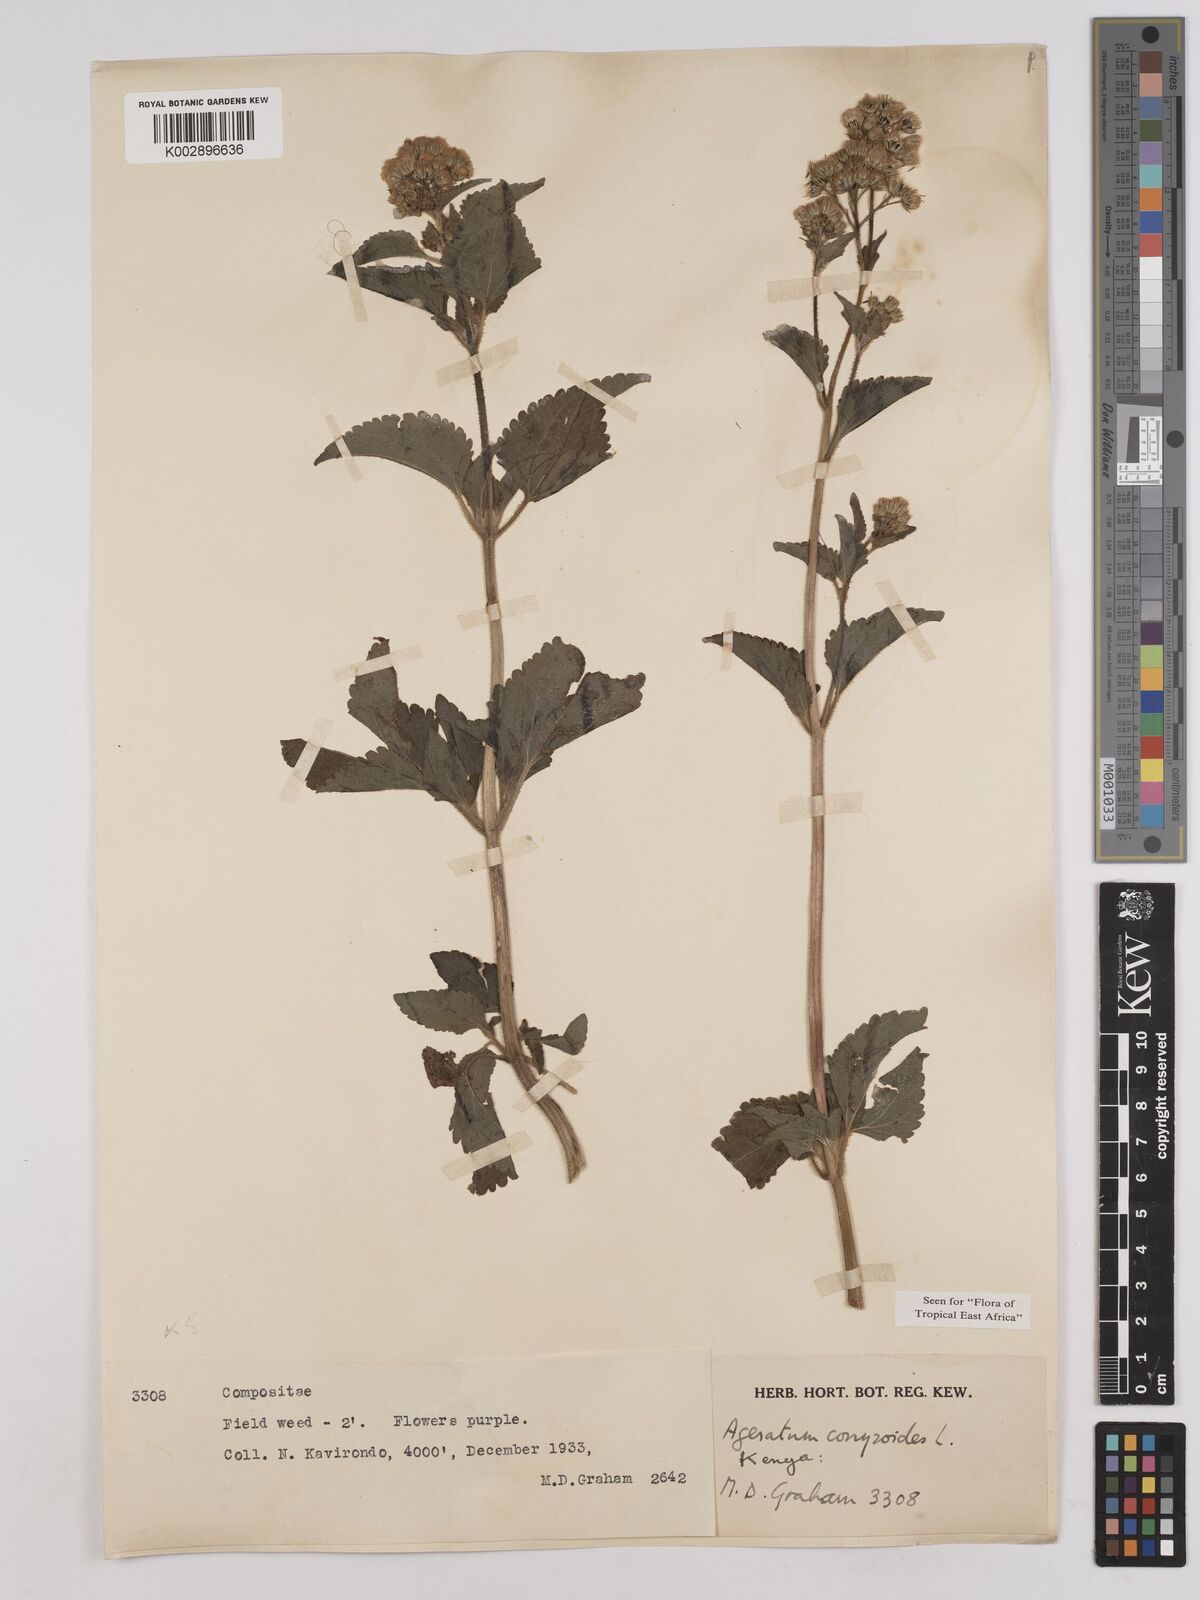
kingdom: Plantae
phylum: Tracheophyta
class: Magnoliopsida
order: Asterales
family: Asteraceae
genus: Ageratum
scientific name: Ageratum conyzoides
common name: Tropical whiteweed
